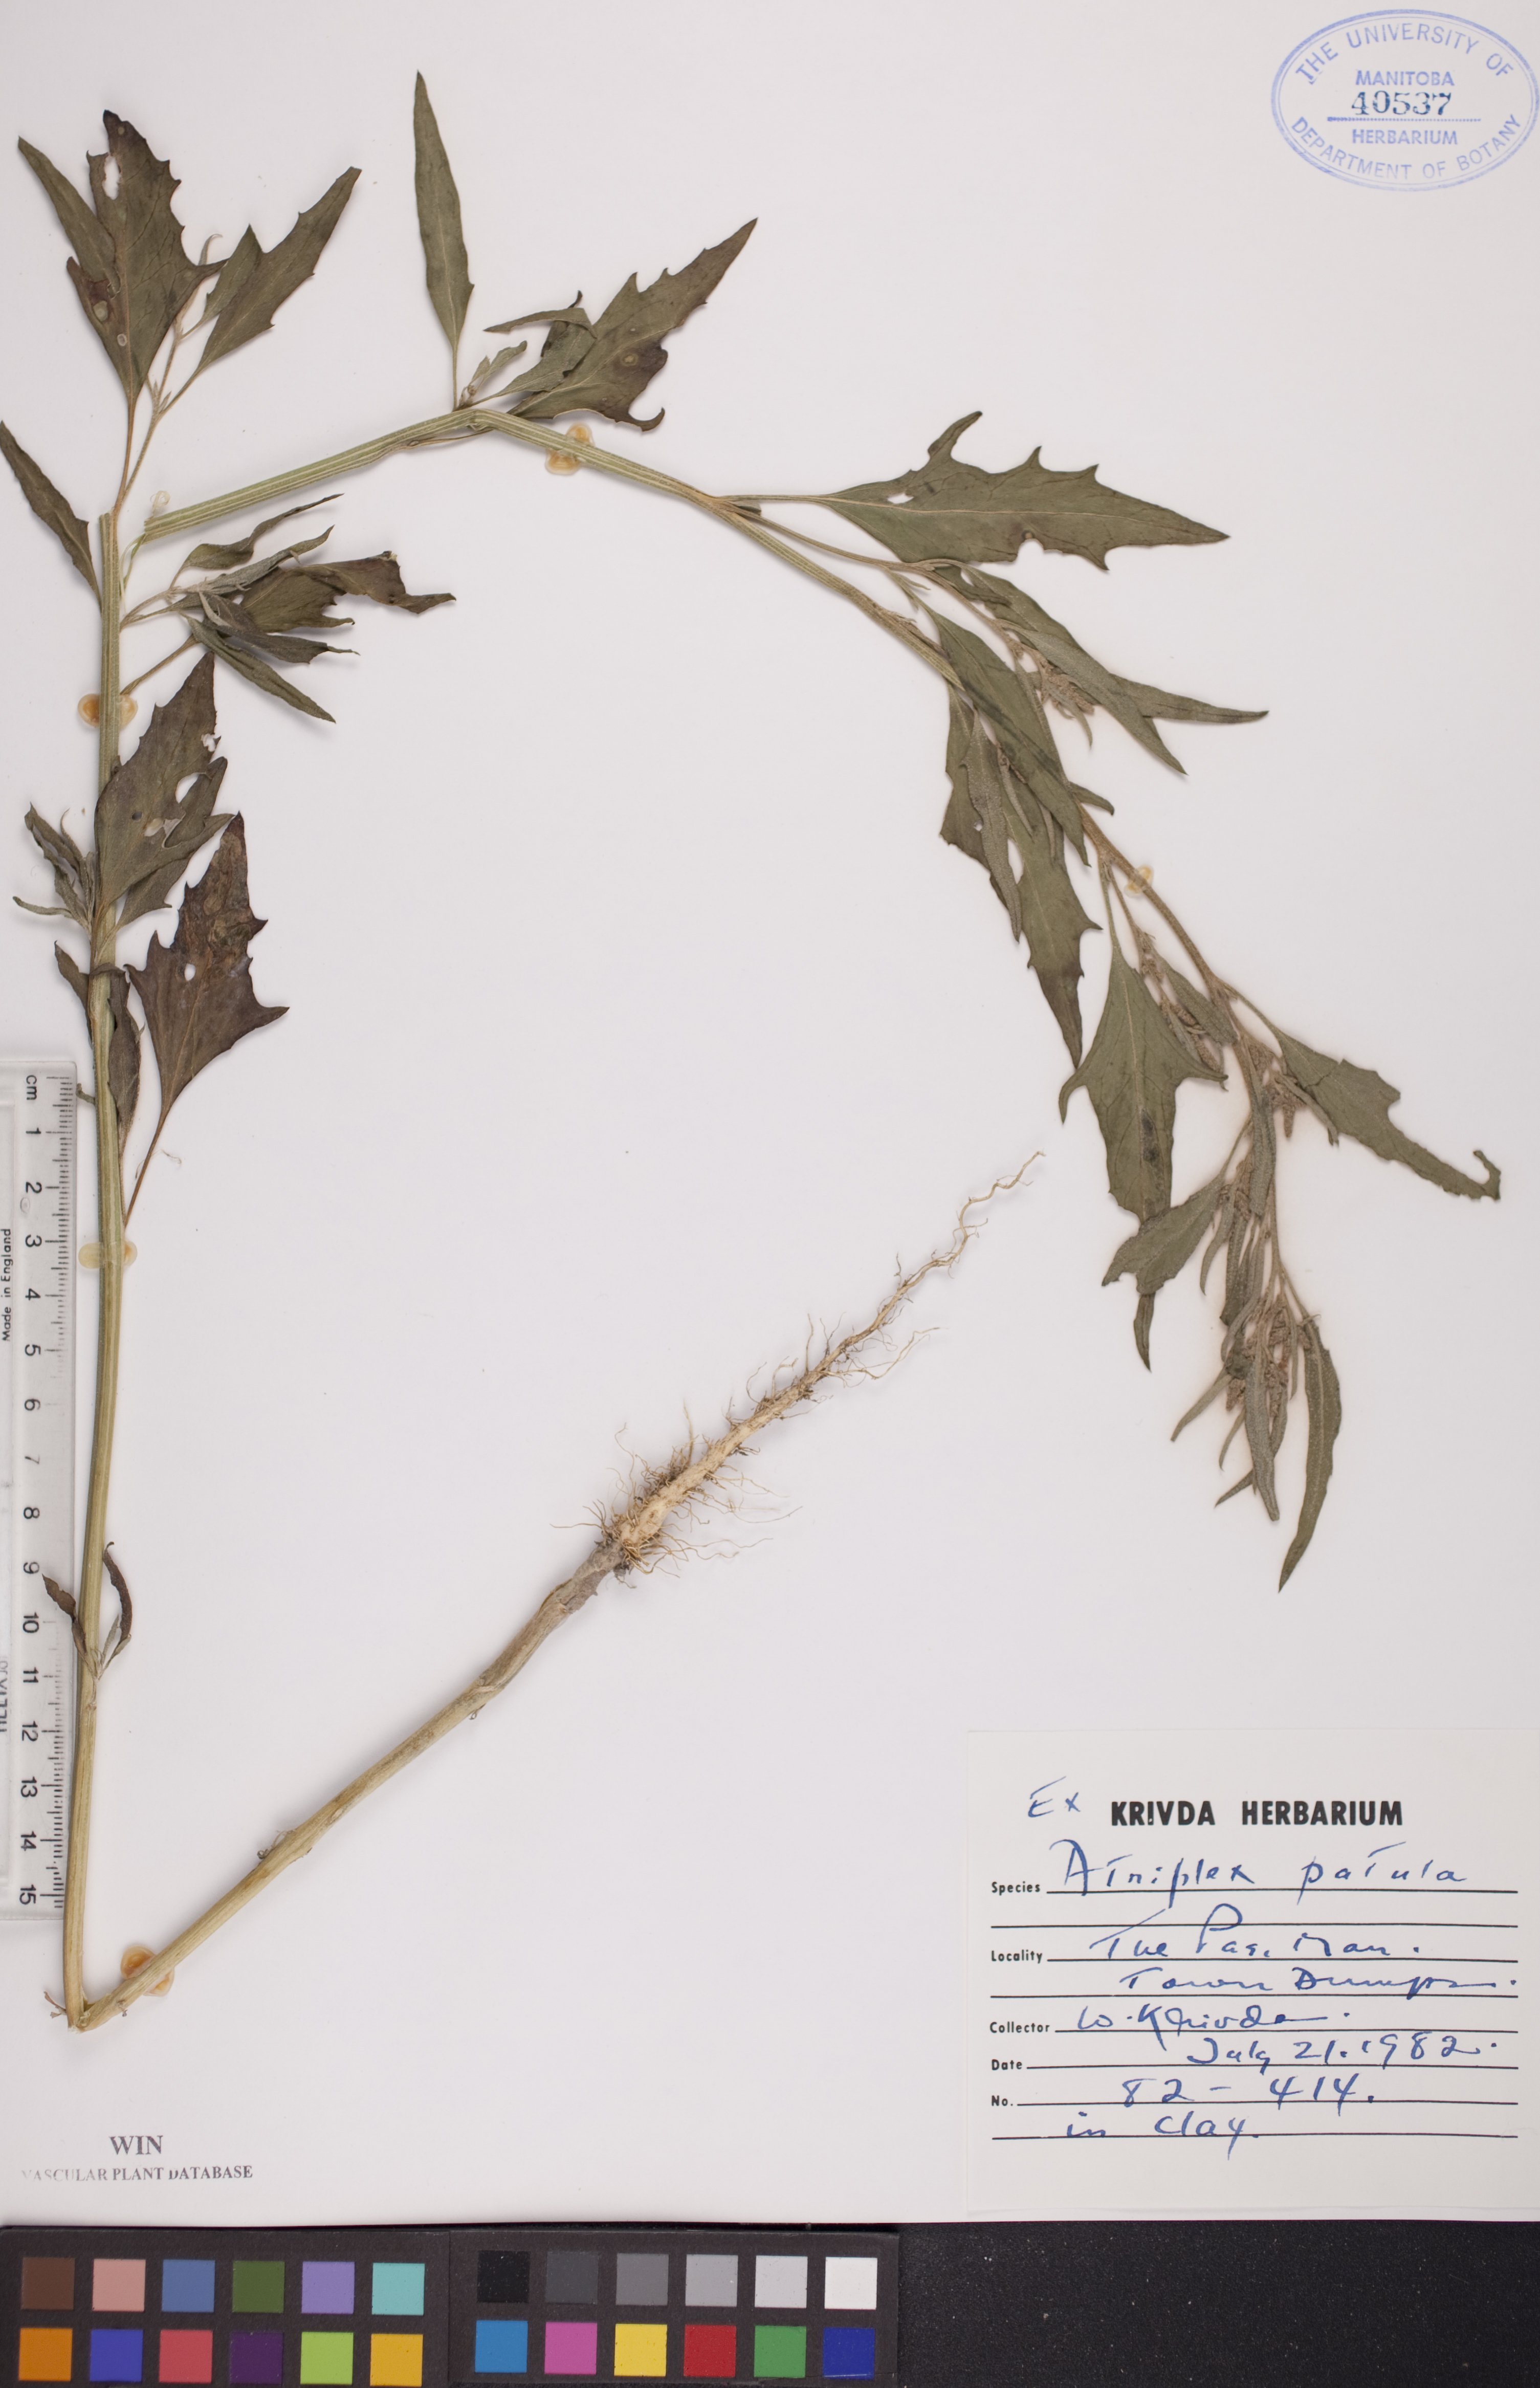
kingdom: Plantae
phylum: Tracheophyta
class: Magnoliopsida
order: Caryophyllales
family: Amaranthaceae
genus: Atriplex
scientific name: Atriplex patula
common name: Common orache
